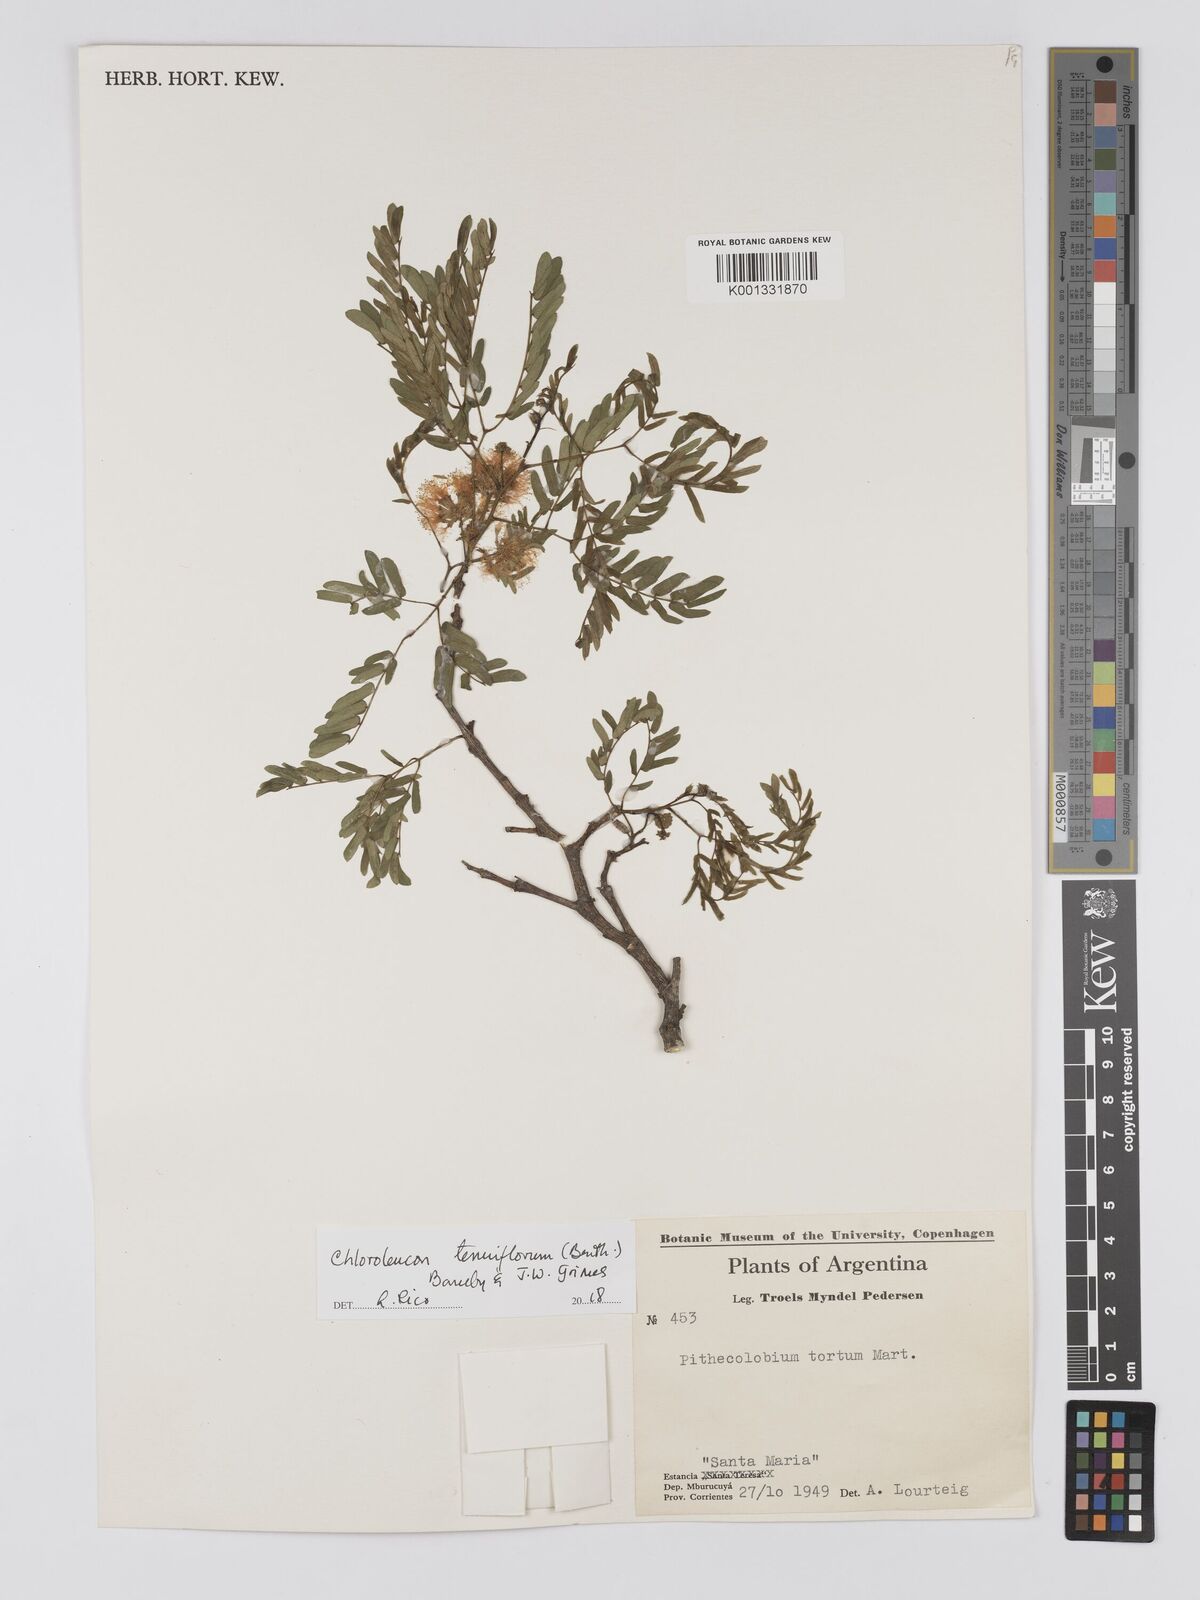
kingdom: Plantae
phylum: Tracheophyta
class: Magnoliopsida
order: Fabales
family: Fabaceae
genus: Chloroleucon
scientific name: Chloroleucon tenuiflorum
